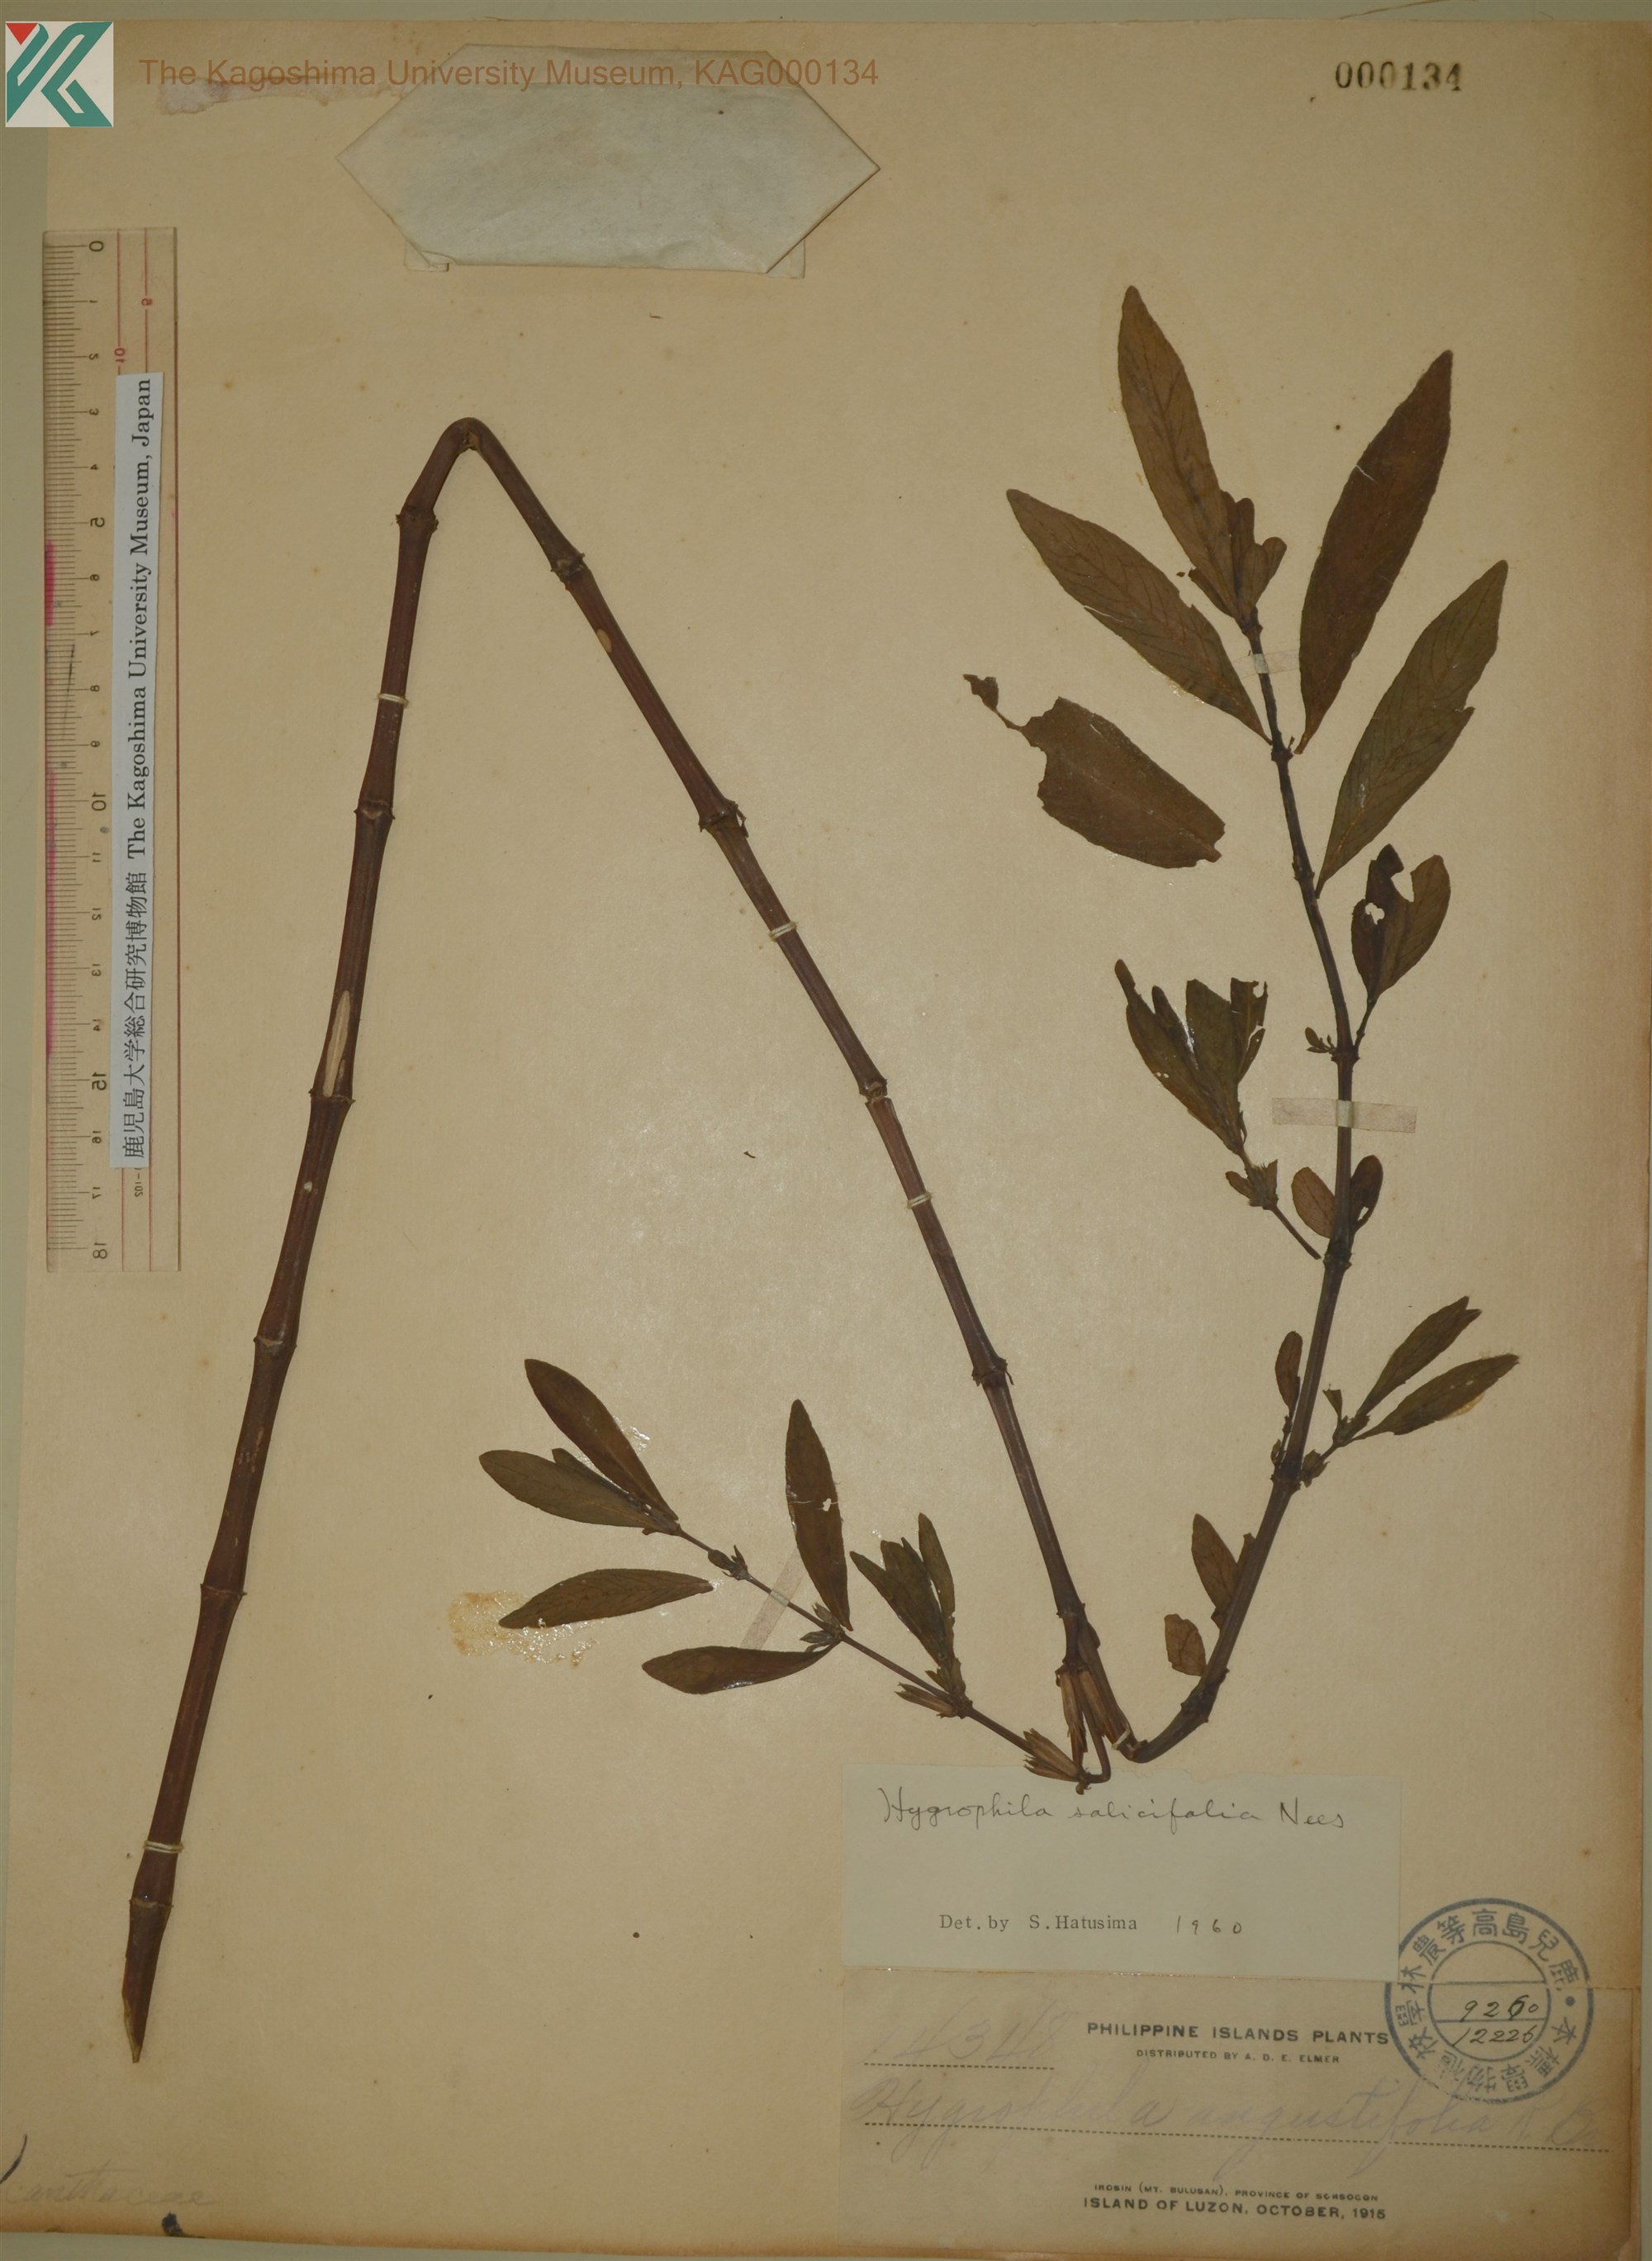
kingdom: Plantae
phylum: Tracheophyta
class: Magnoliopsida
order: Lamiales
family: Acanthaceae
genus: Hygrophila
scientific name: Hygrophila ringens
